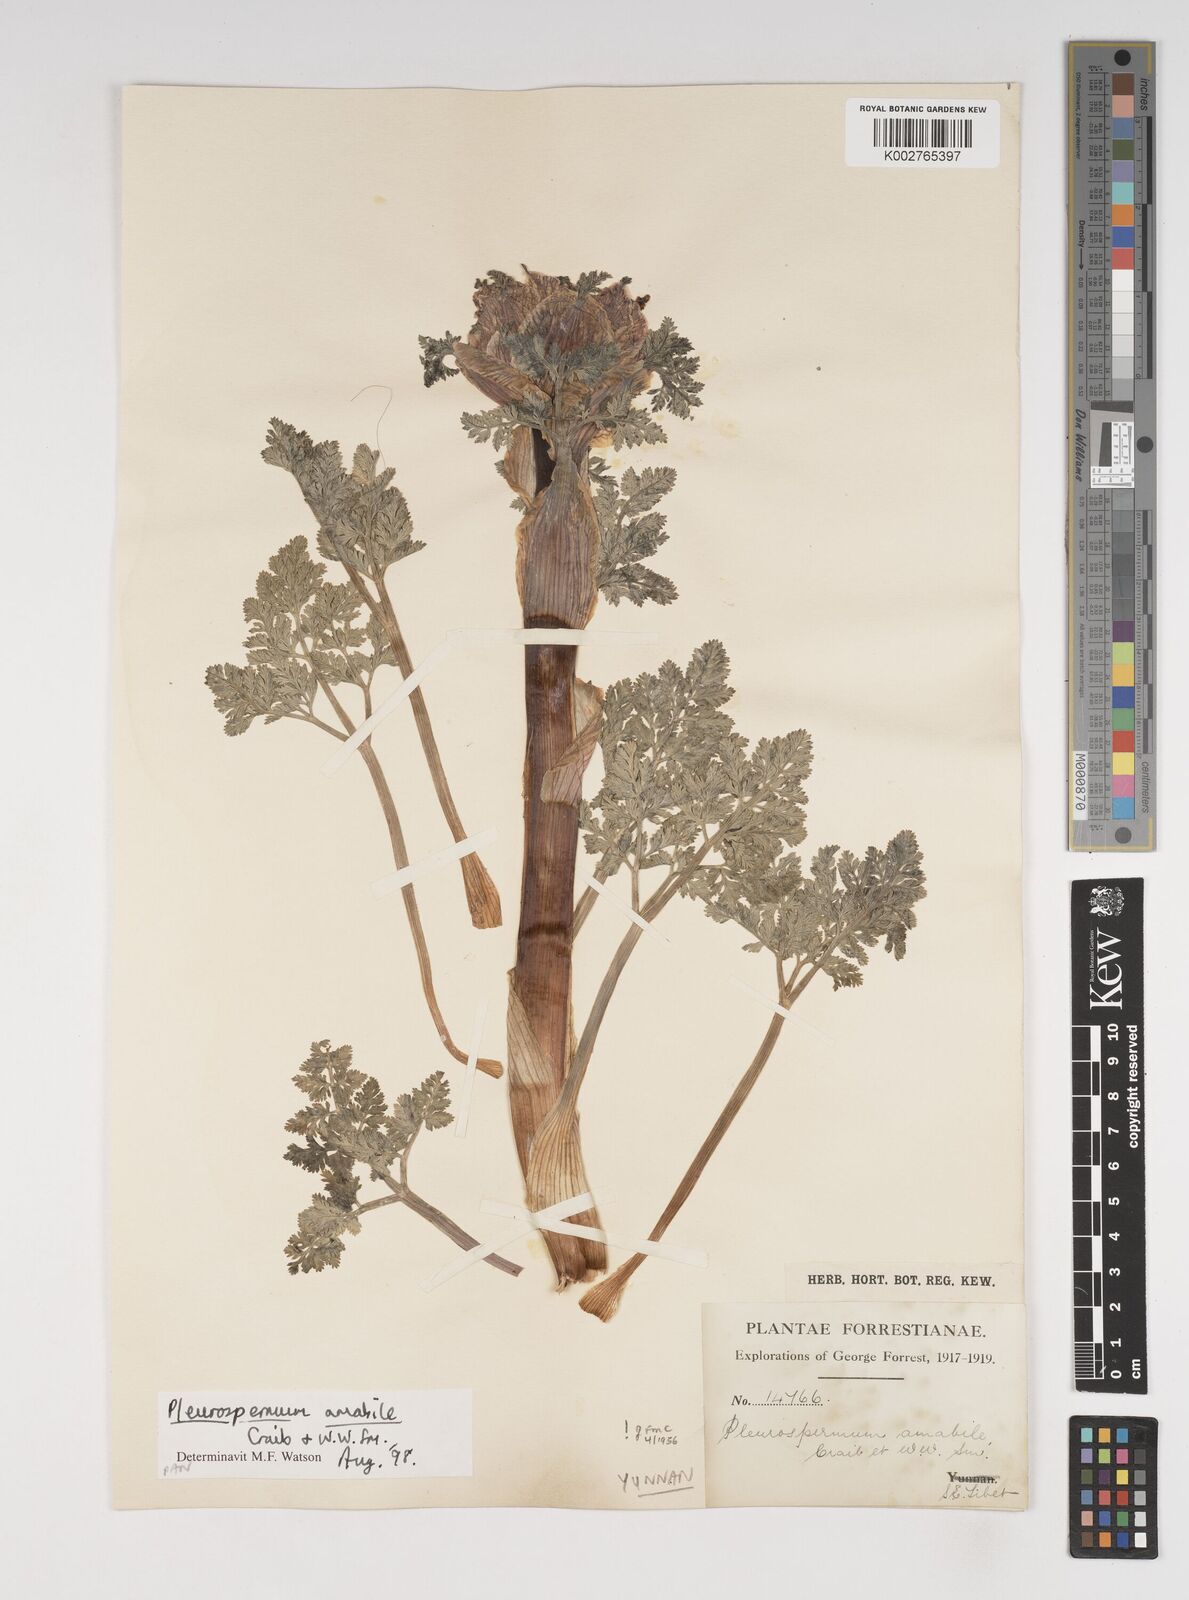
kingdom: Plantae
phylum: Tracheophyta
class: Magnoliopsida
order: Apiales
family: Apiaceae
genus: Hymenidium
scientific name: Hymenidium amabile
